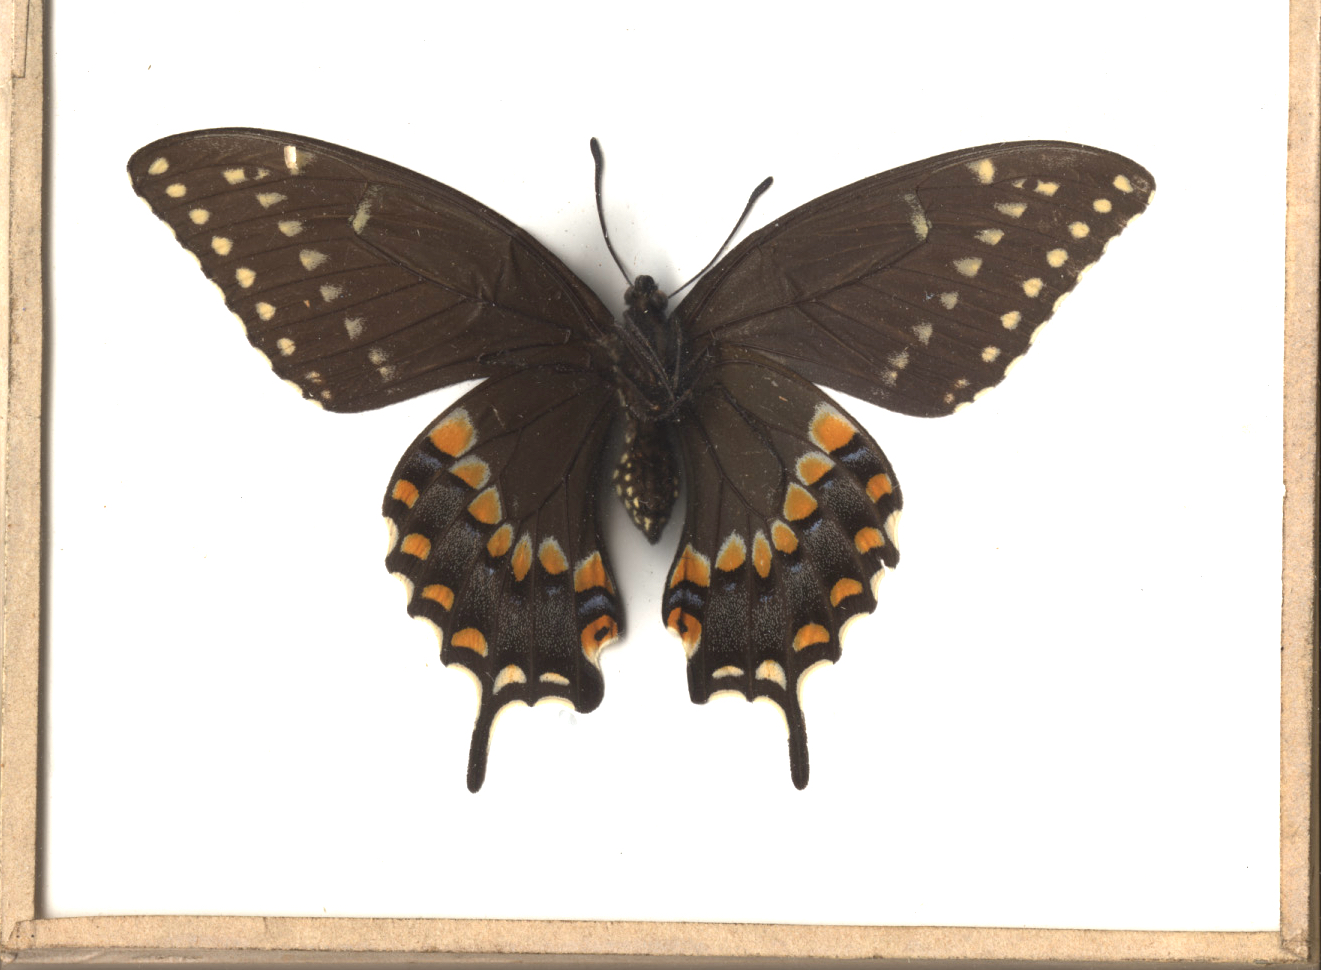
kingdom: Animalia
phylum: Arthropoda
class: Insecta
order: Lepidoptera
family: Papilionidae
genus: Papilio
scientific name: Papilio polyxenes
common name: Black Swallowtail
